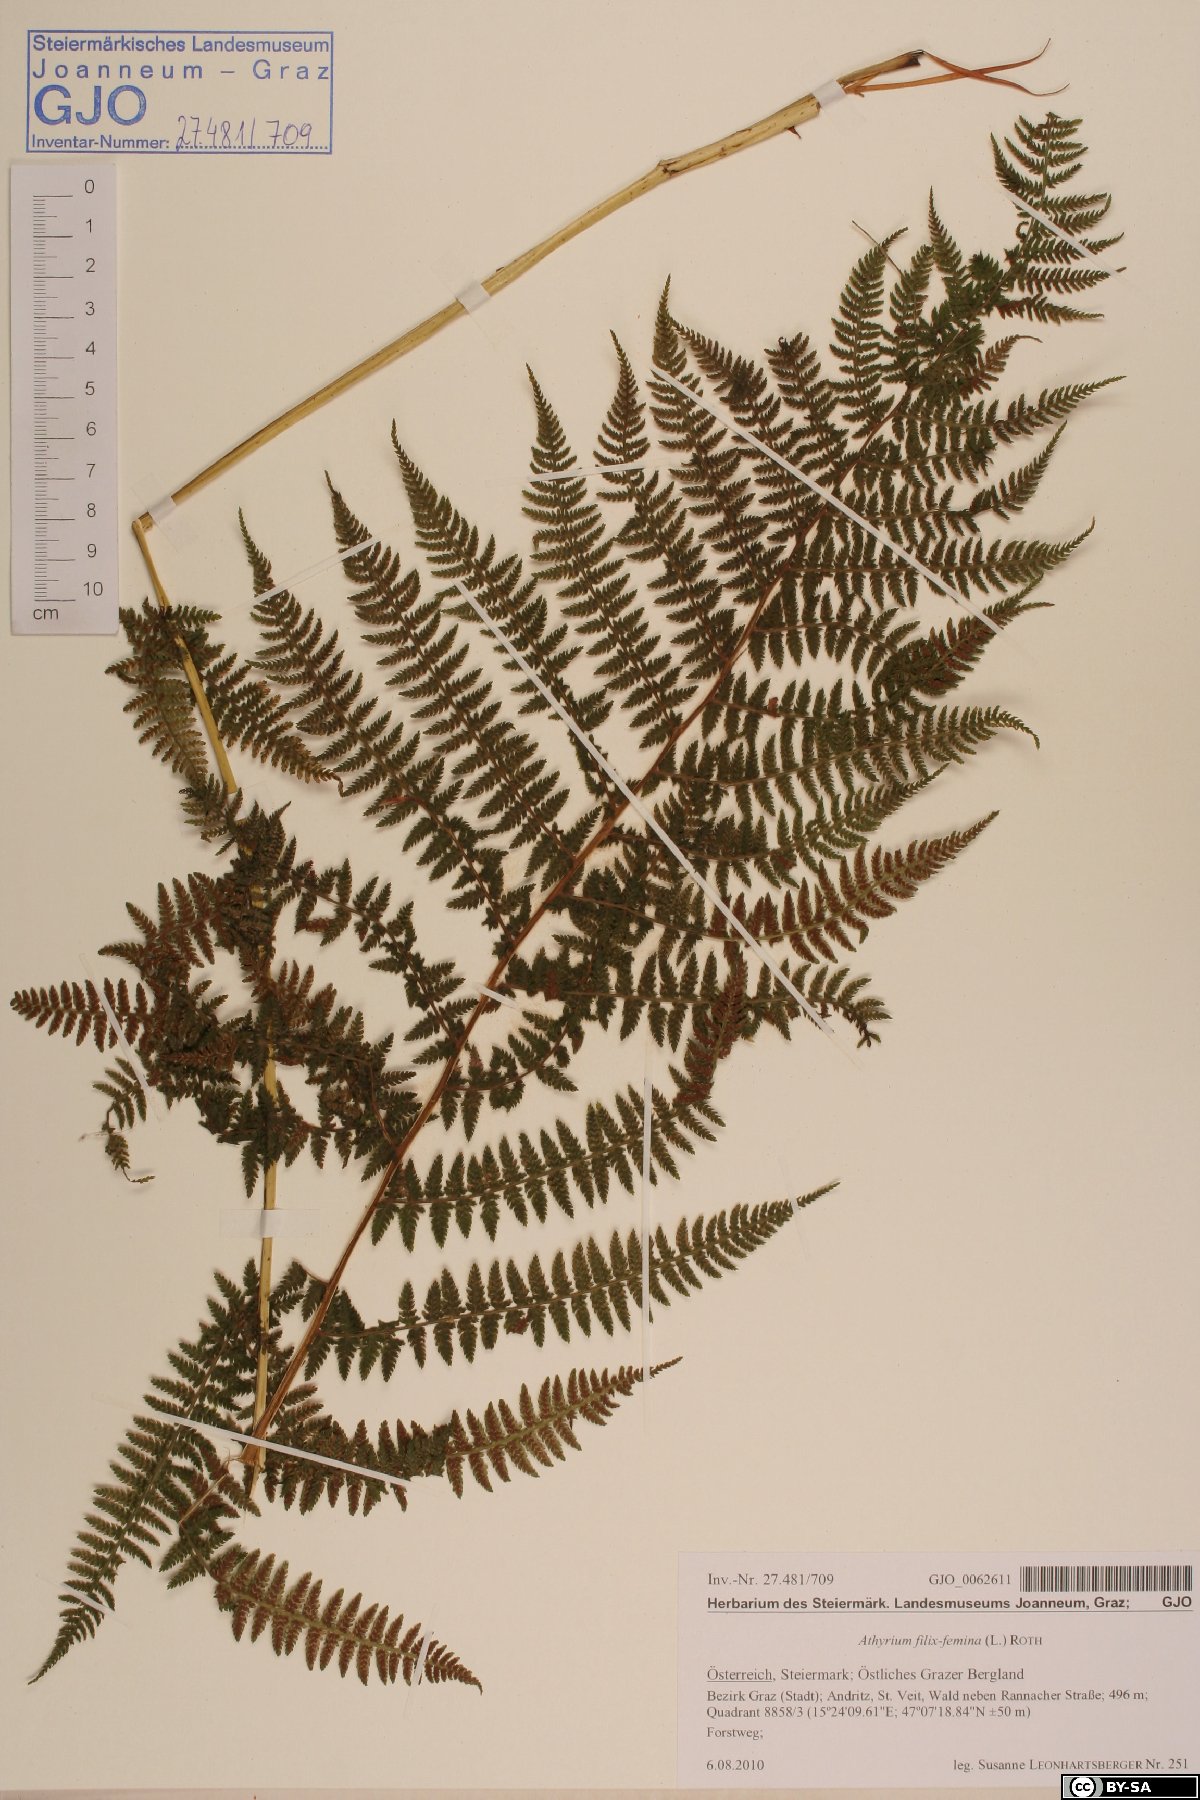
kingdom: Plantae
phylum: Tracheophyta
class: Polypodiopsida
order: Polypodiales
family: Athyriaceae
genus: Athyrium
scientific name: Athyrium filix-femina
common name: Lady fern
